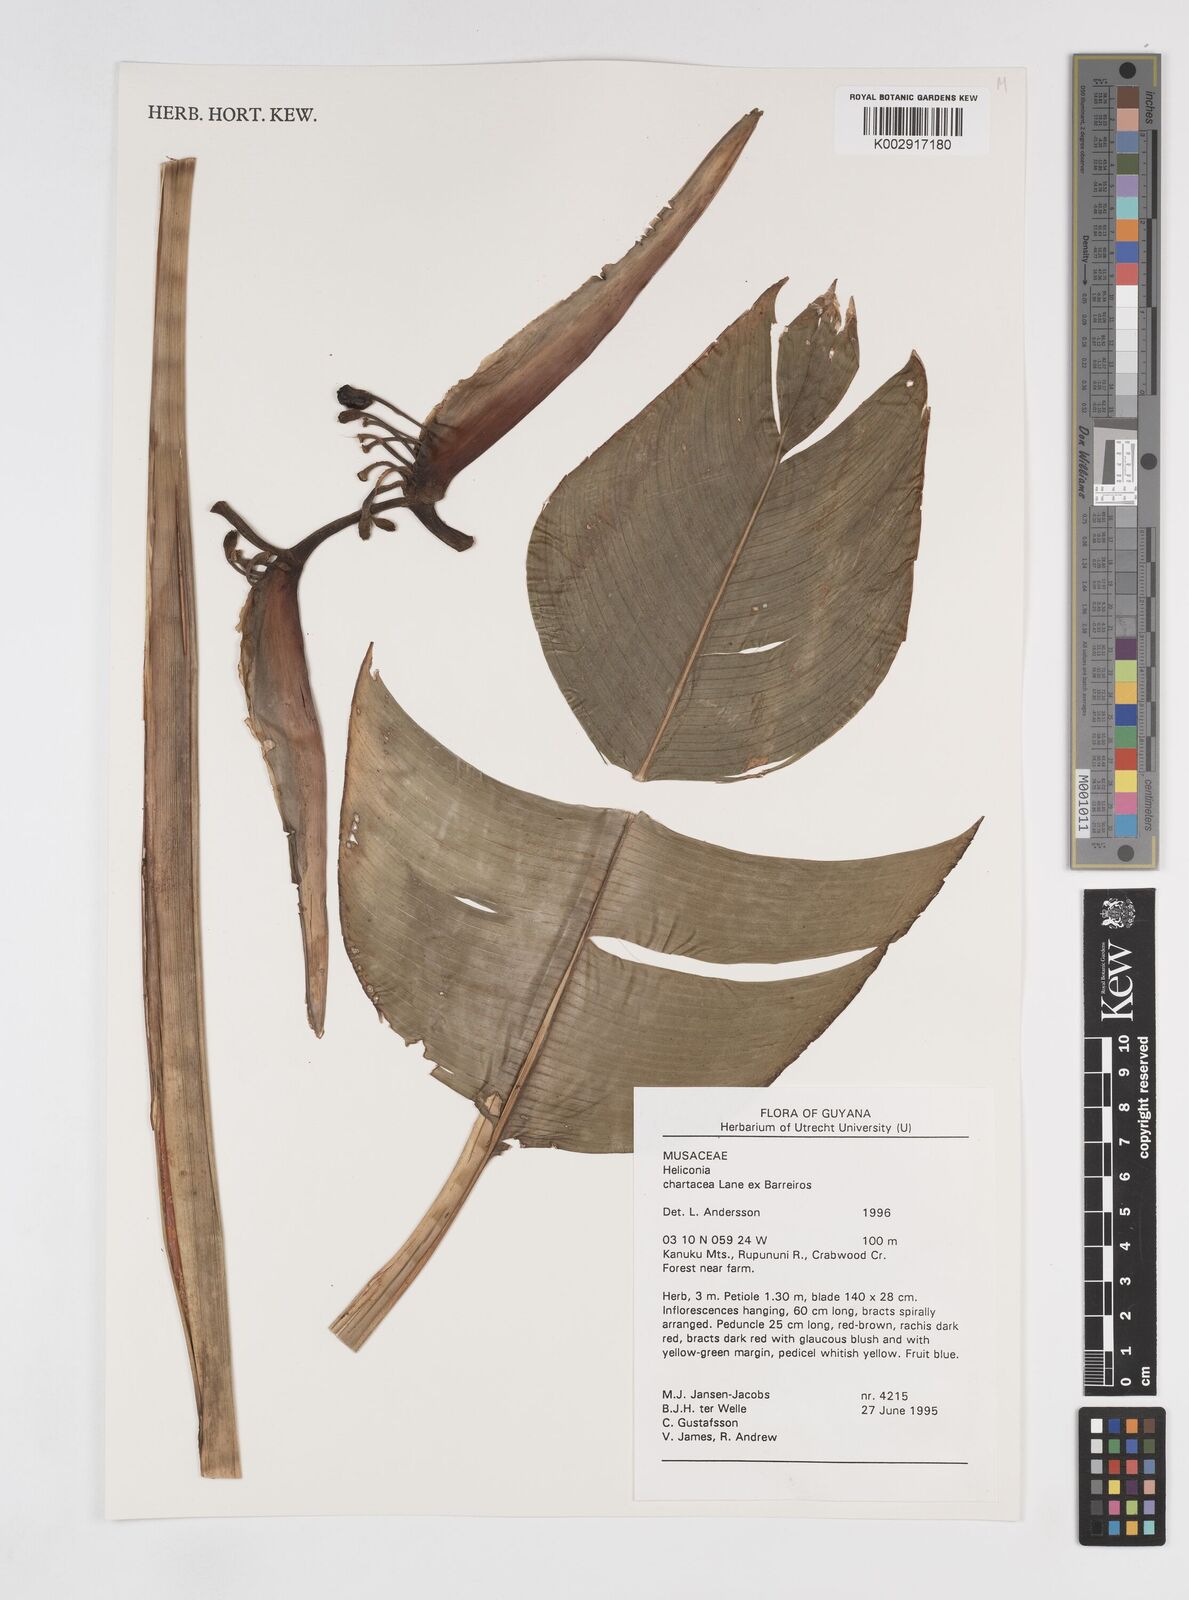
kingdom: Plantae
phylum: Tracheophyta
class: Liliopsida
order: Zingiberales
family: Heliconiaceae
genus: Heliconia
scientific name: Heliconia chartacea
